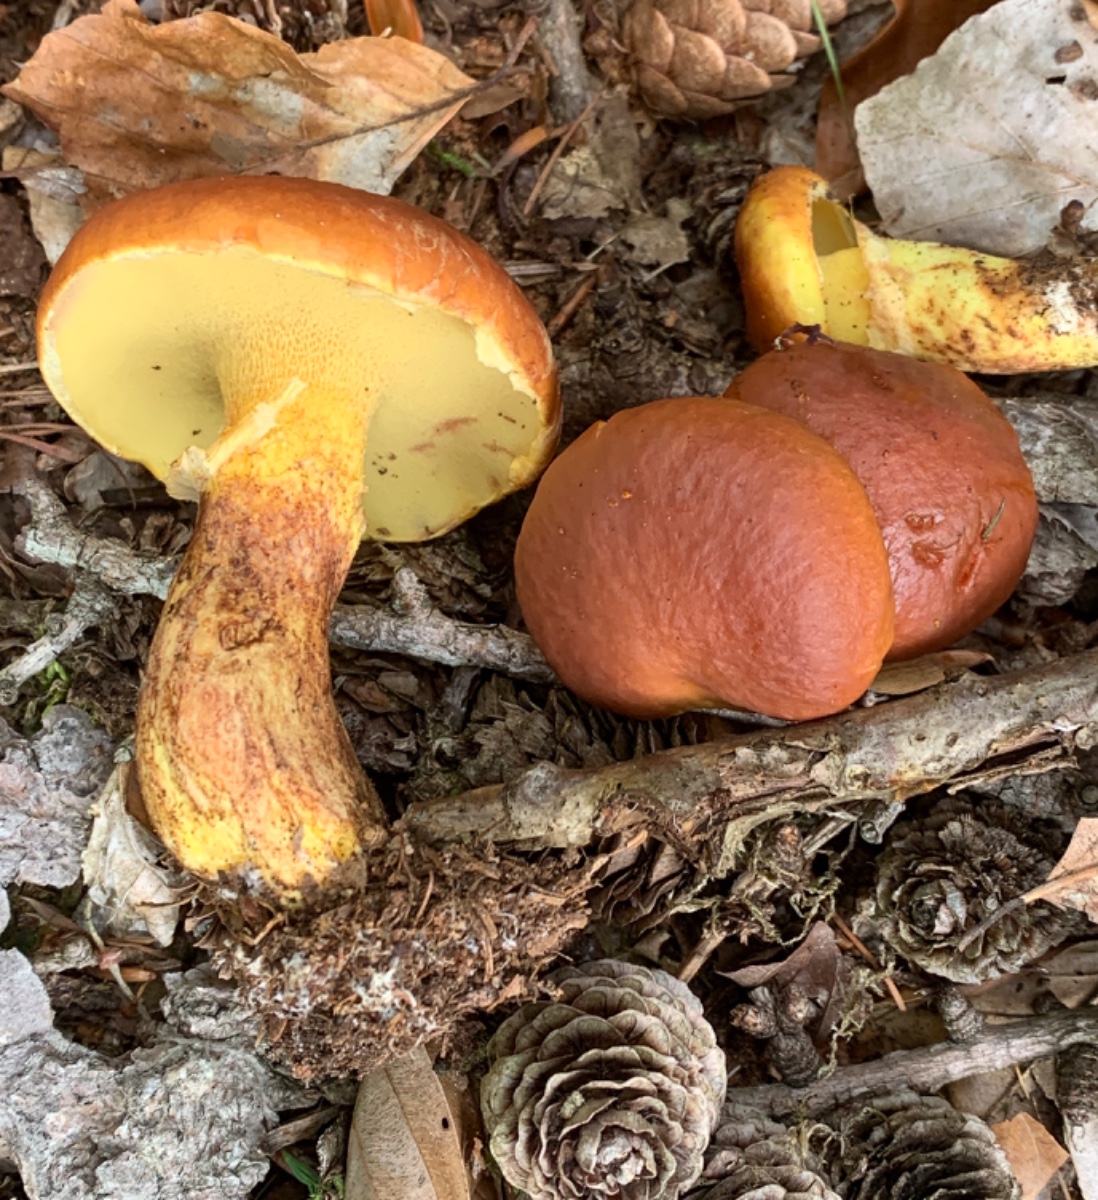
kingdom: Fungi
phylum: Basidiomycota
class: Agaricomycetes
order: Boletales
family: Suillaceae
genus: Suillus
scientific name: Suillus grevillei
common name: lærke-slimrørhat
